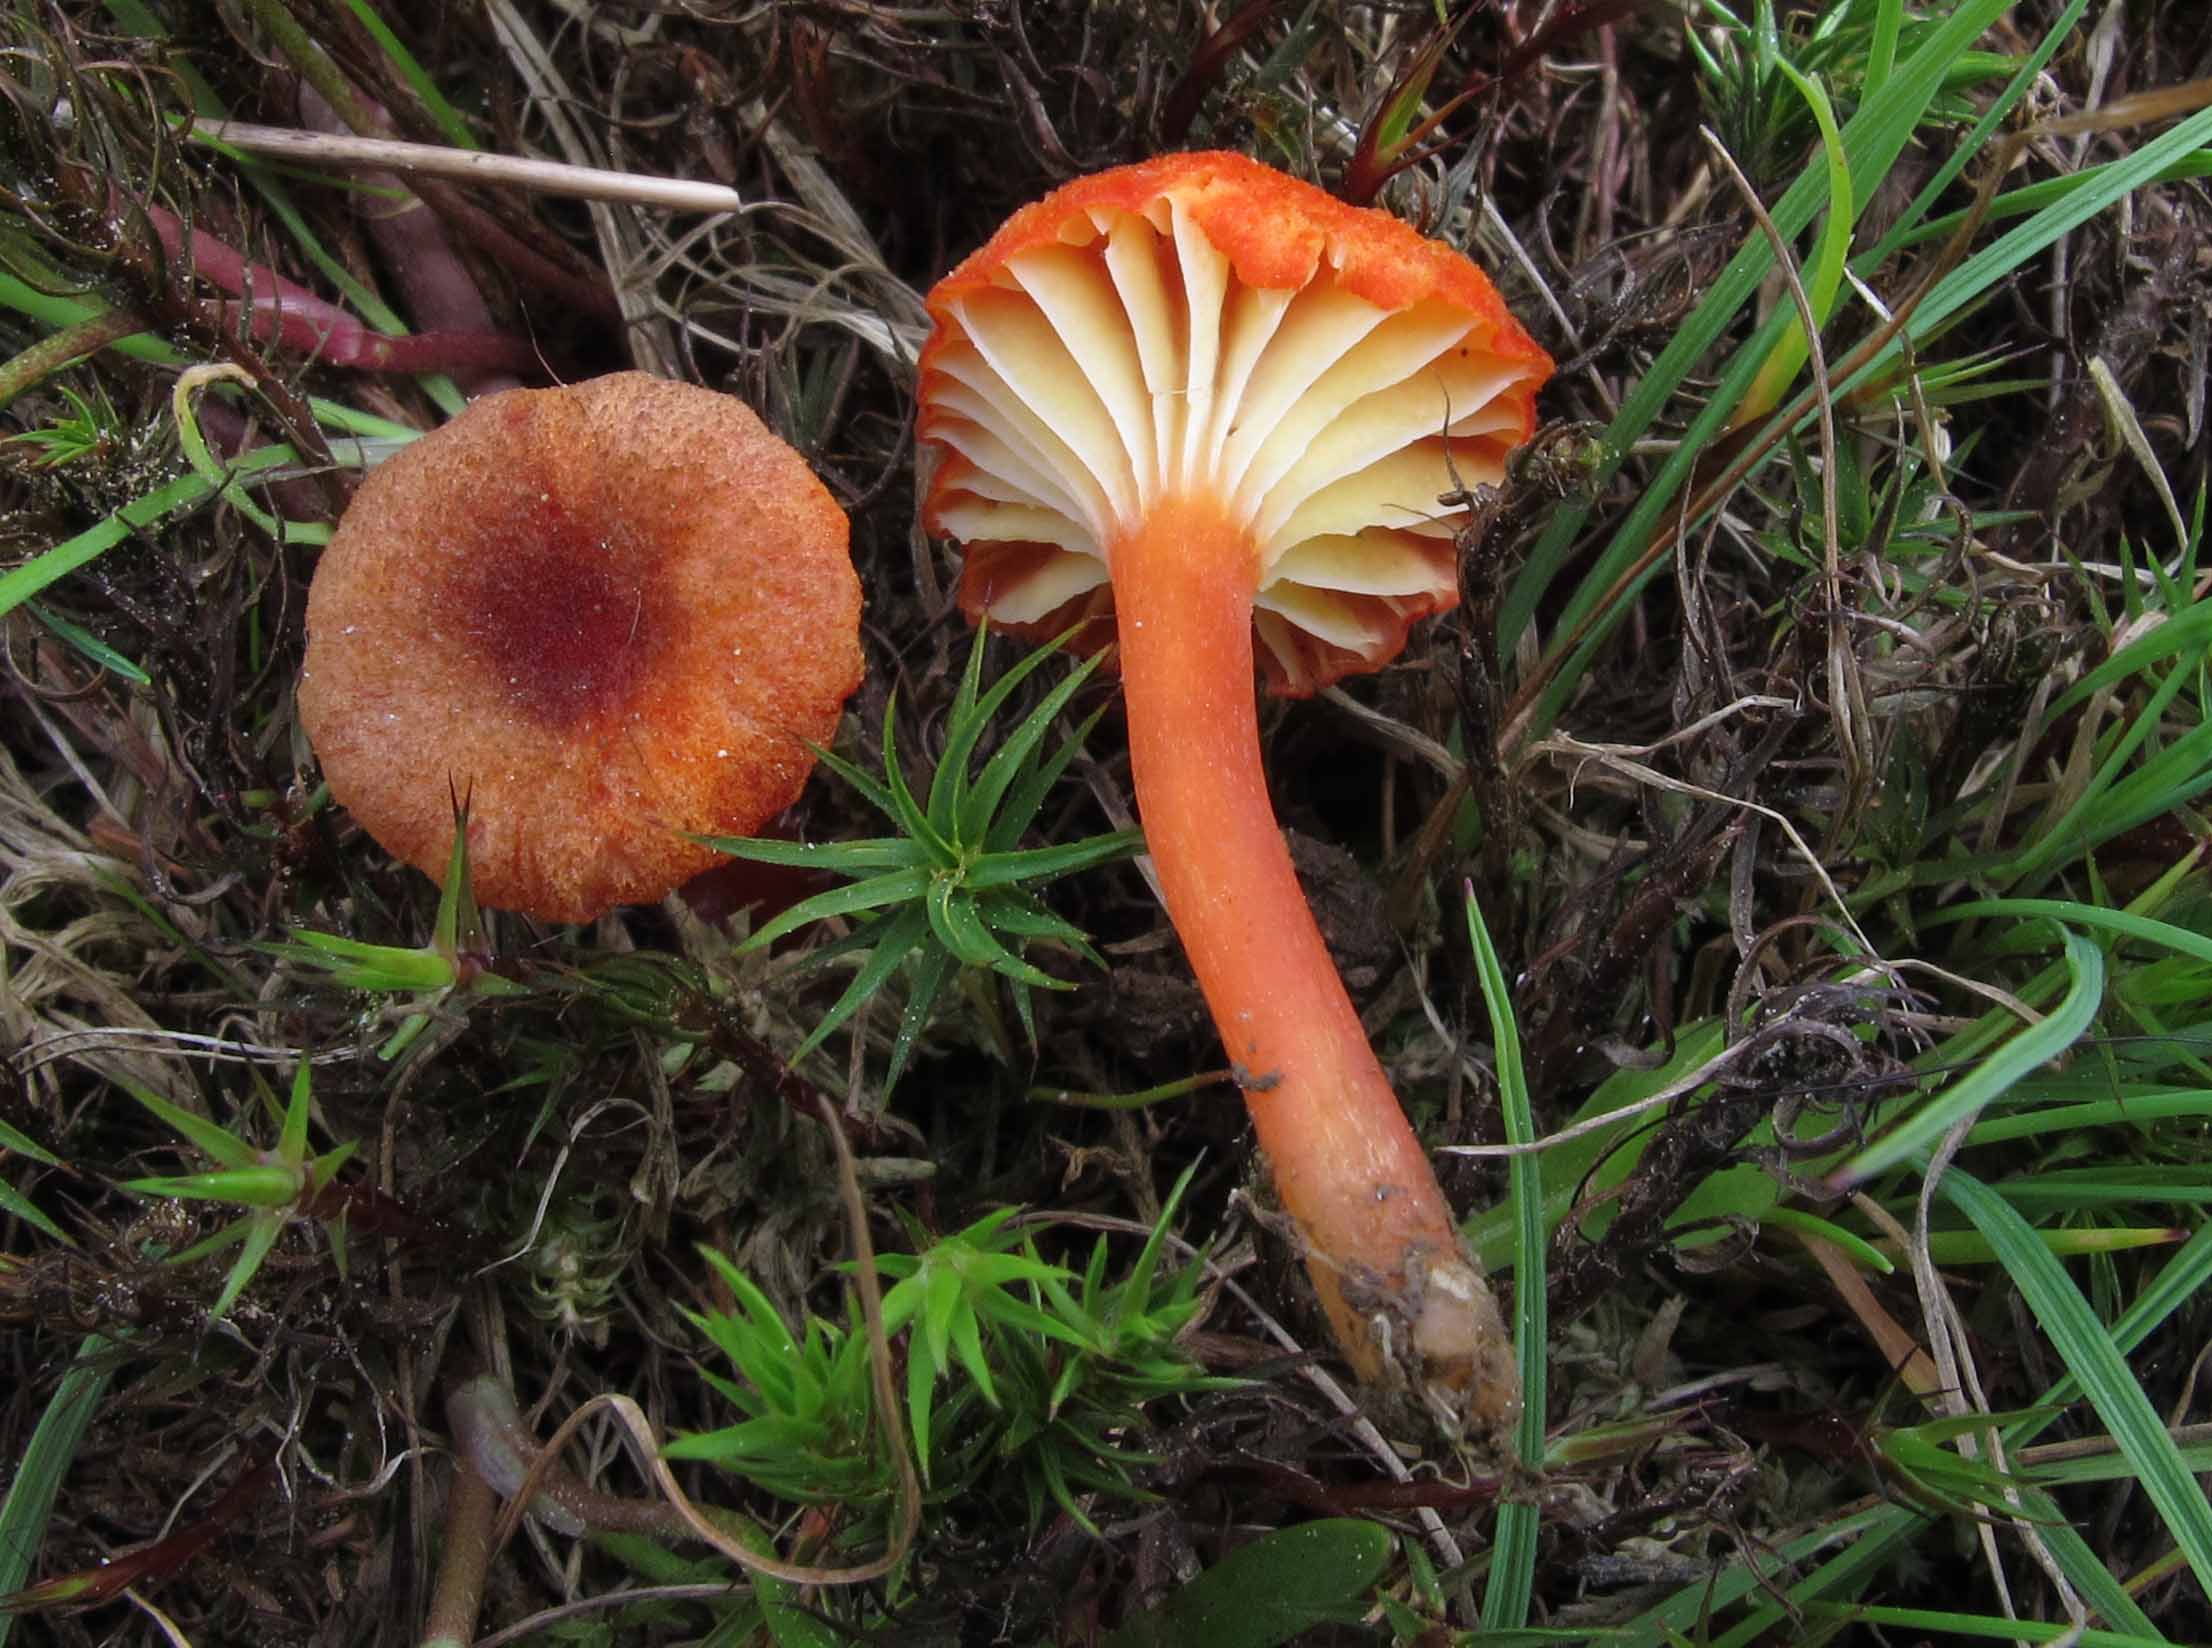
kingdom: Fungi
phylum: Basidiomycota
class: Agaricomycetes
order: Agaricales
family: Hygrophoraceae
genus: Hygrocybe
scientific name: Hygrocybe coccineocrenata
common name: tørvemos-vokshat
